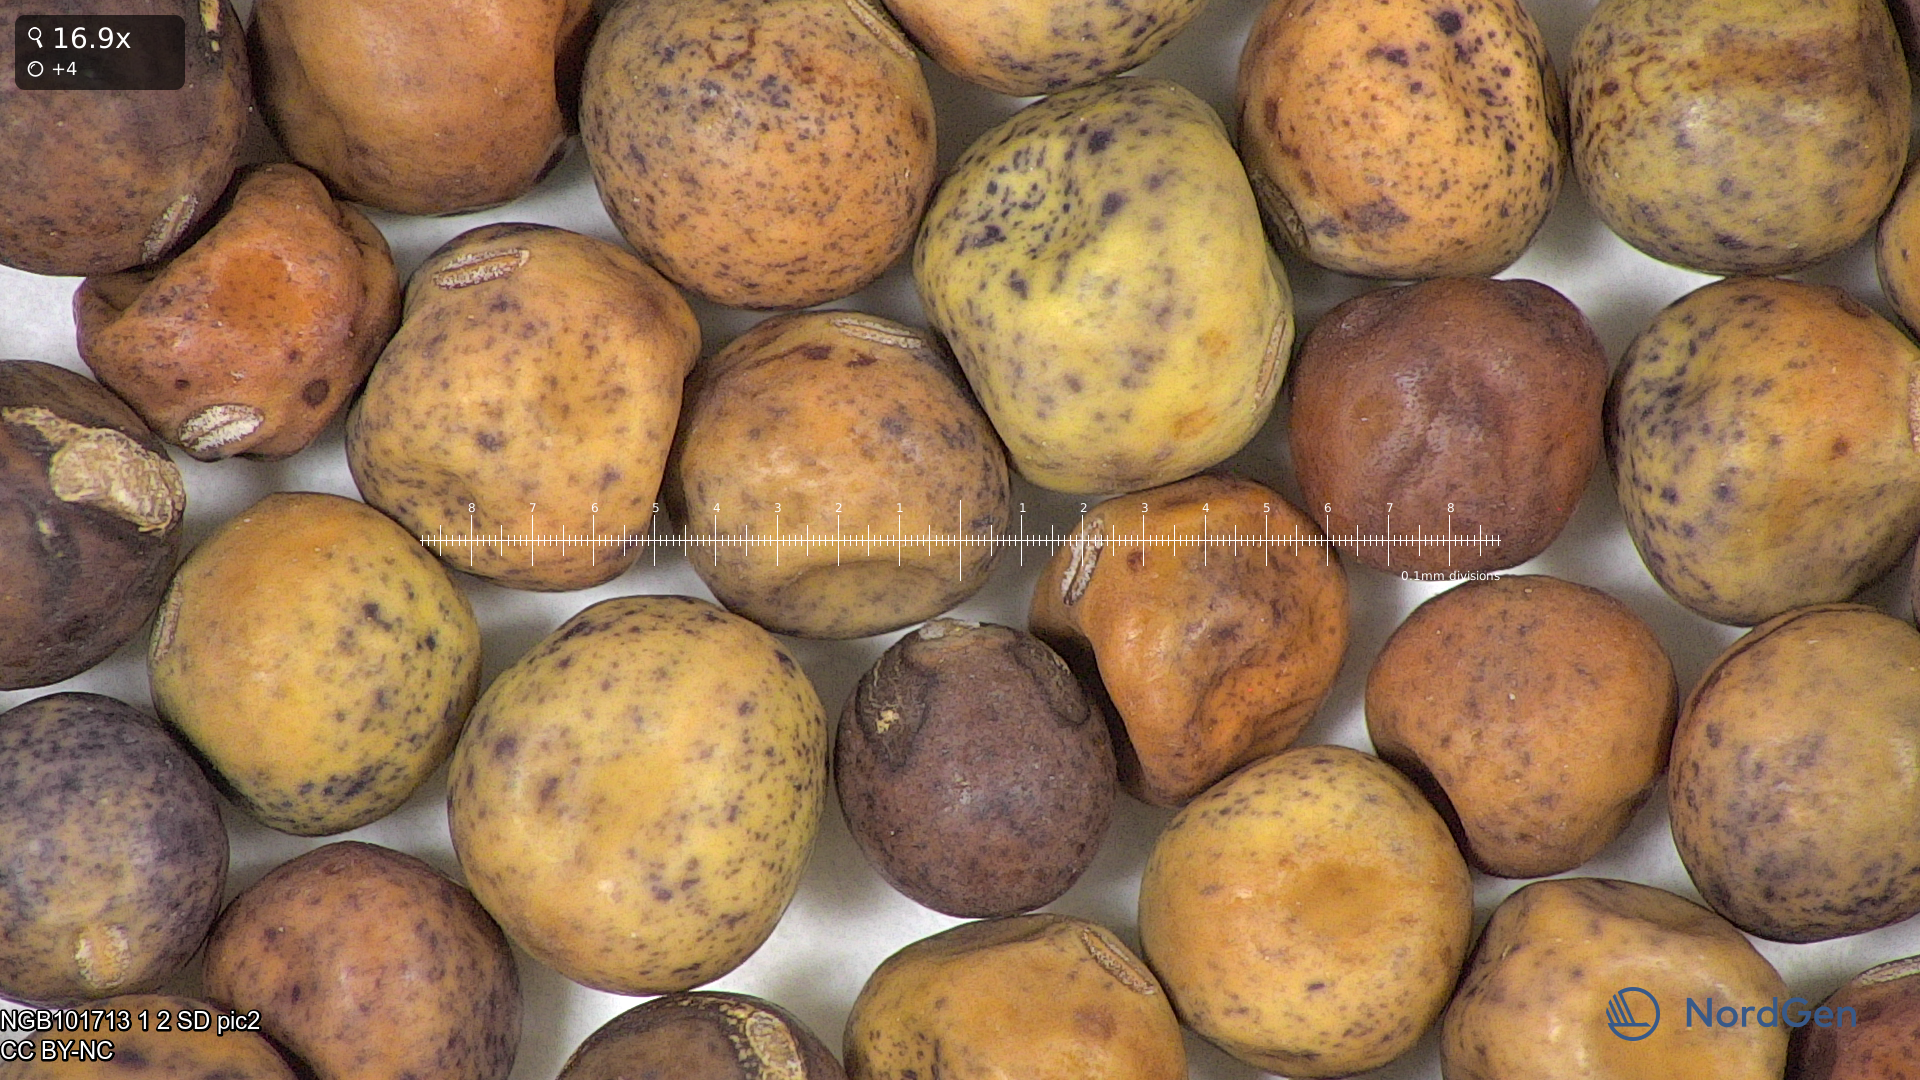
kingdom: Plantae
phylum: Tracheophyta
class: Magnoliopsida
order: Fabales
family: Fabaceae
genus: Lathyrus
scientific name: Lathyrus oleraceus
